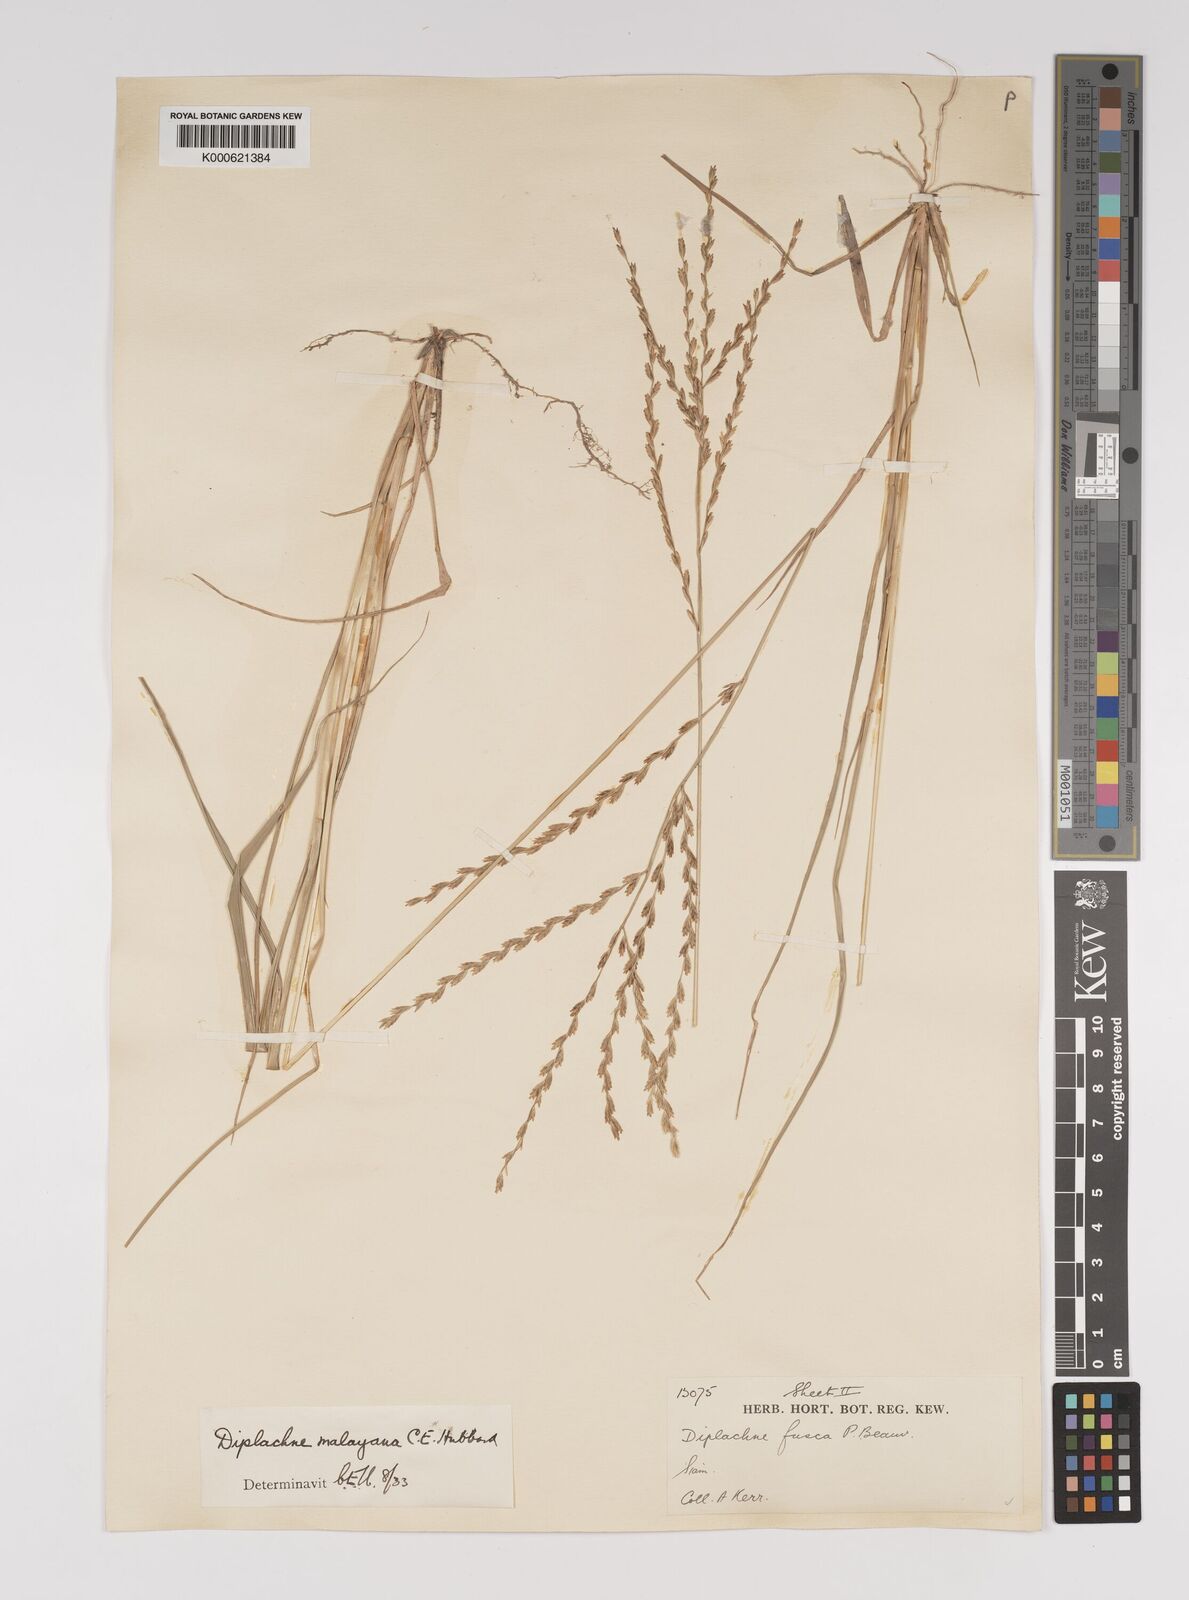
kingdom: Plantae
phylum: Tracheophyta
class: Liliopsida
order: Poales
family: Poaceae
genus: Leptochloa
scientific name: Leptochloa malayana
